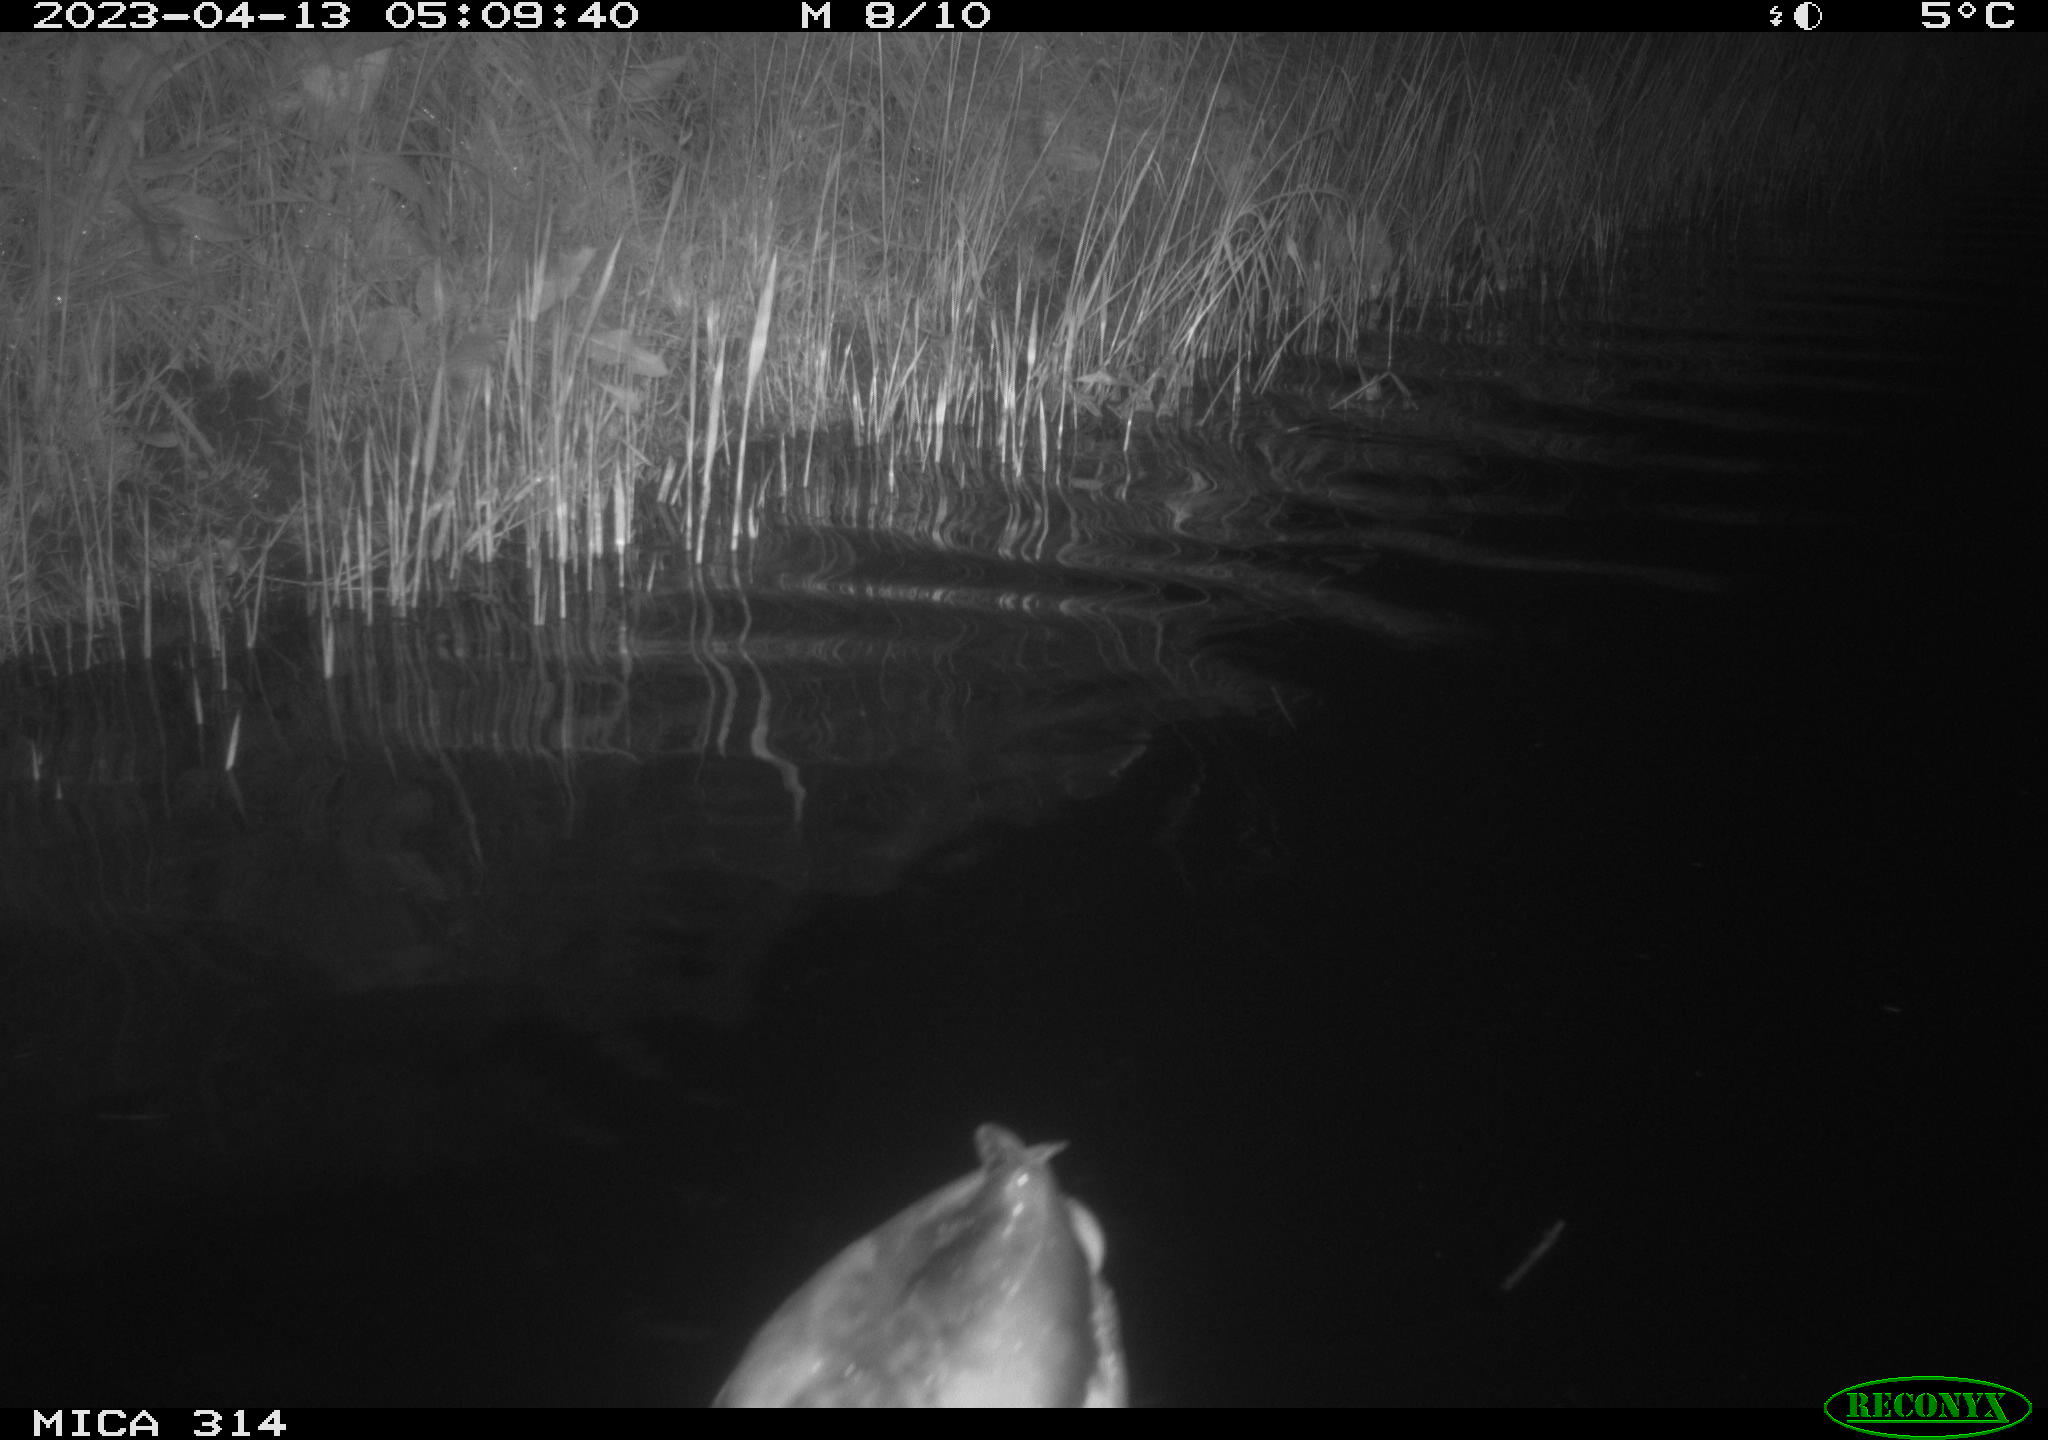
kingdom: Animalia
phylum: Chordata
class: Aves
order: Anseriformes
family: Anatidae
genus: Anas
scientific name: Anas
